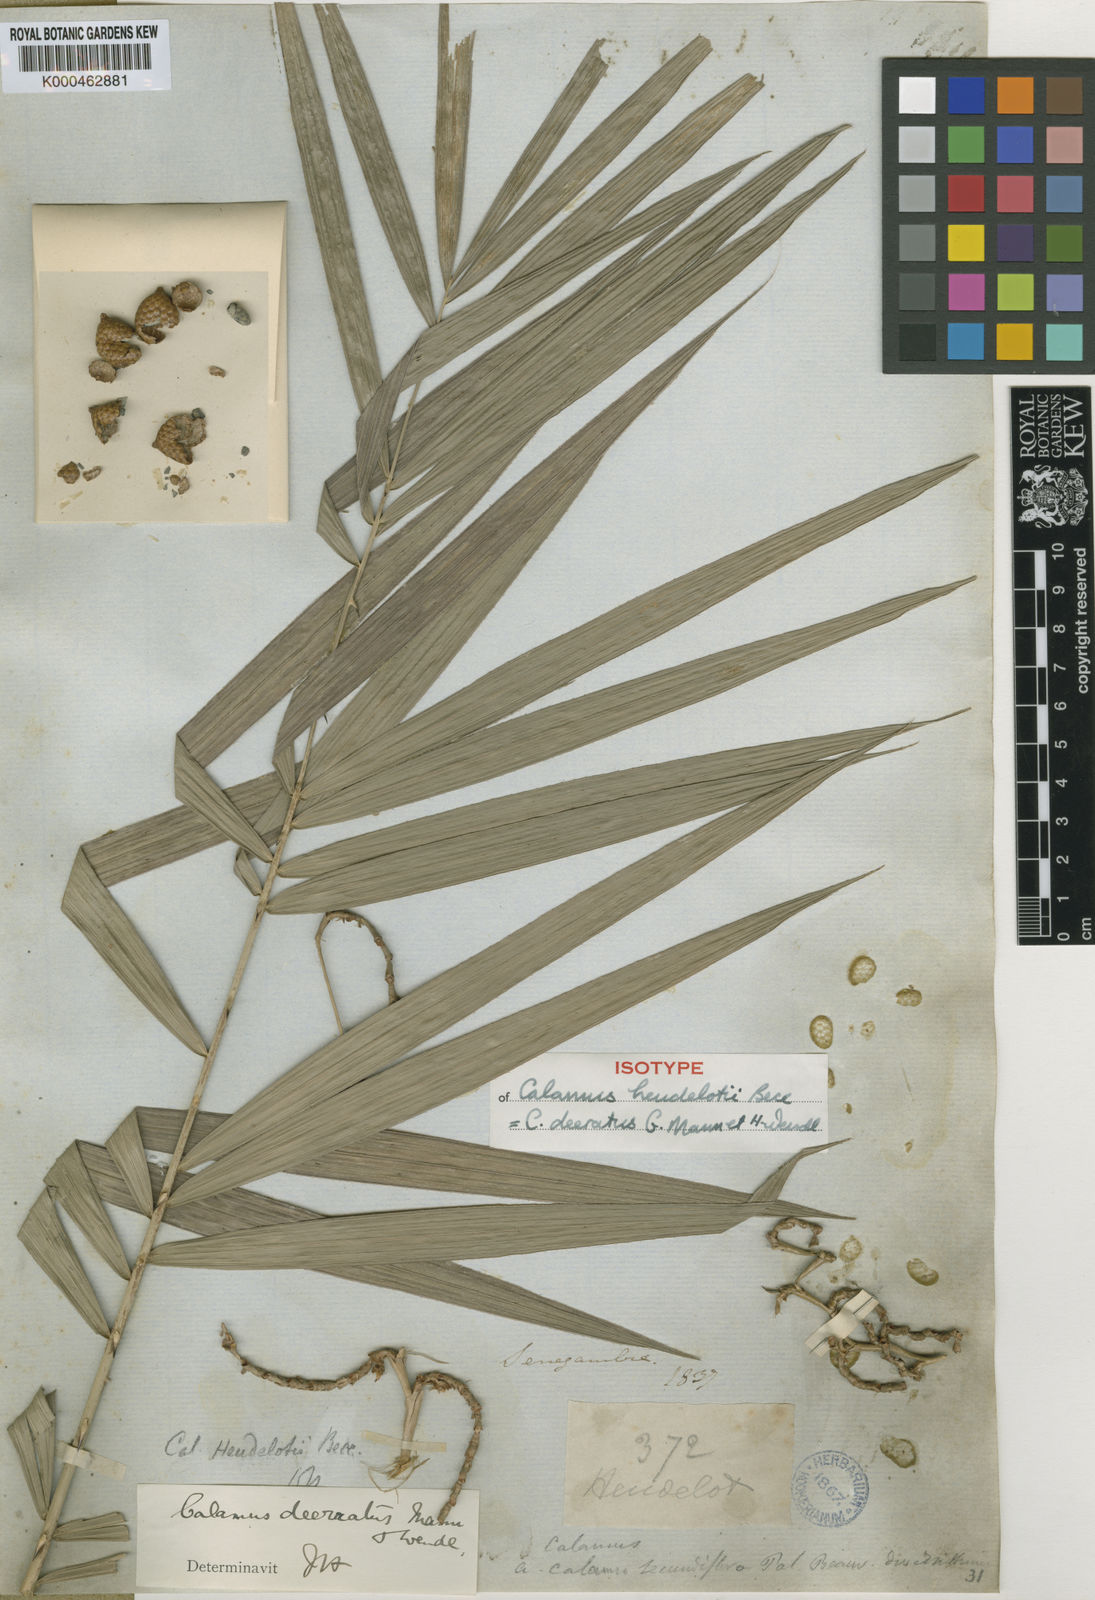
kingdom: Plantae
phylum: Tracheophyta
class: Liliopsida
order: Arecales
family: Arecaceae
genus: Calamus
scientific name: Calamus deerratus
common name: Rattan
